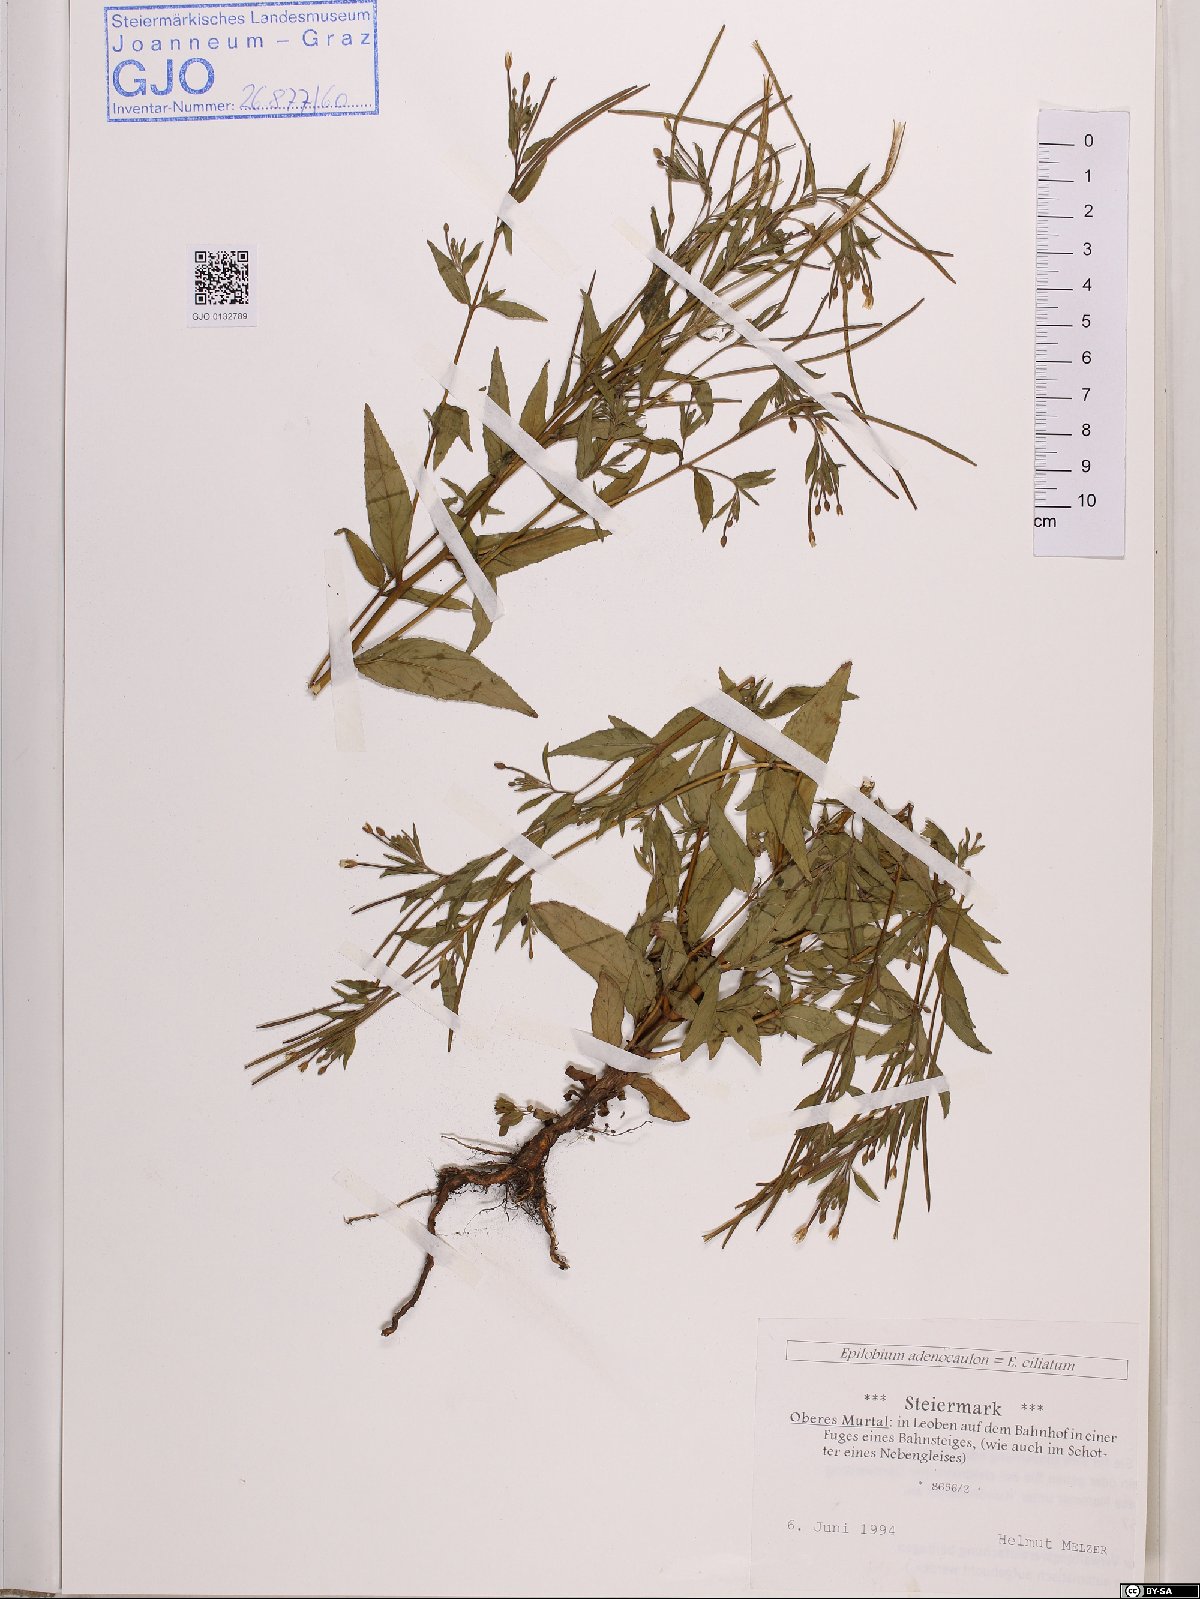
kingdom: Plantae
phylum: Tracheophyta
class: Magnoliopsida
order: Myrtales
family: Onagraceae
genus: Epilobium
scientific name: Epilobium ciliatum
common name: American willowherb
